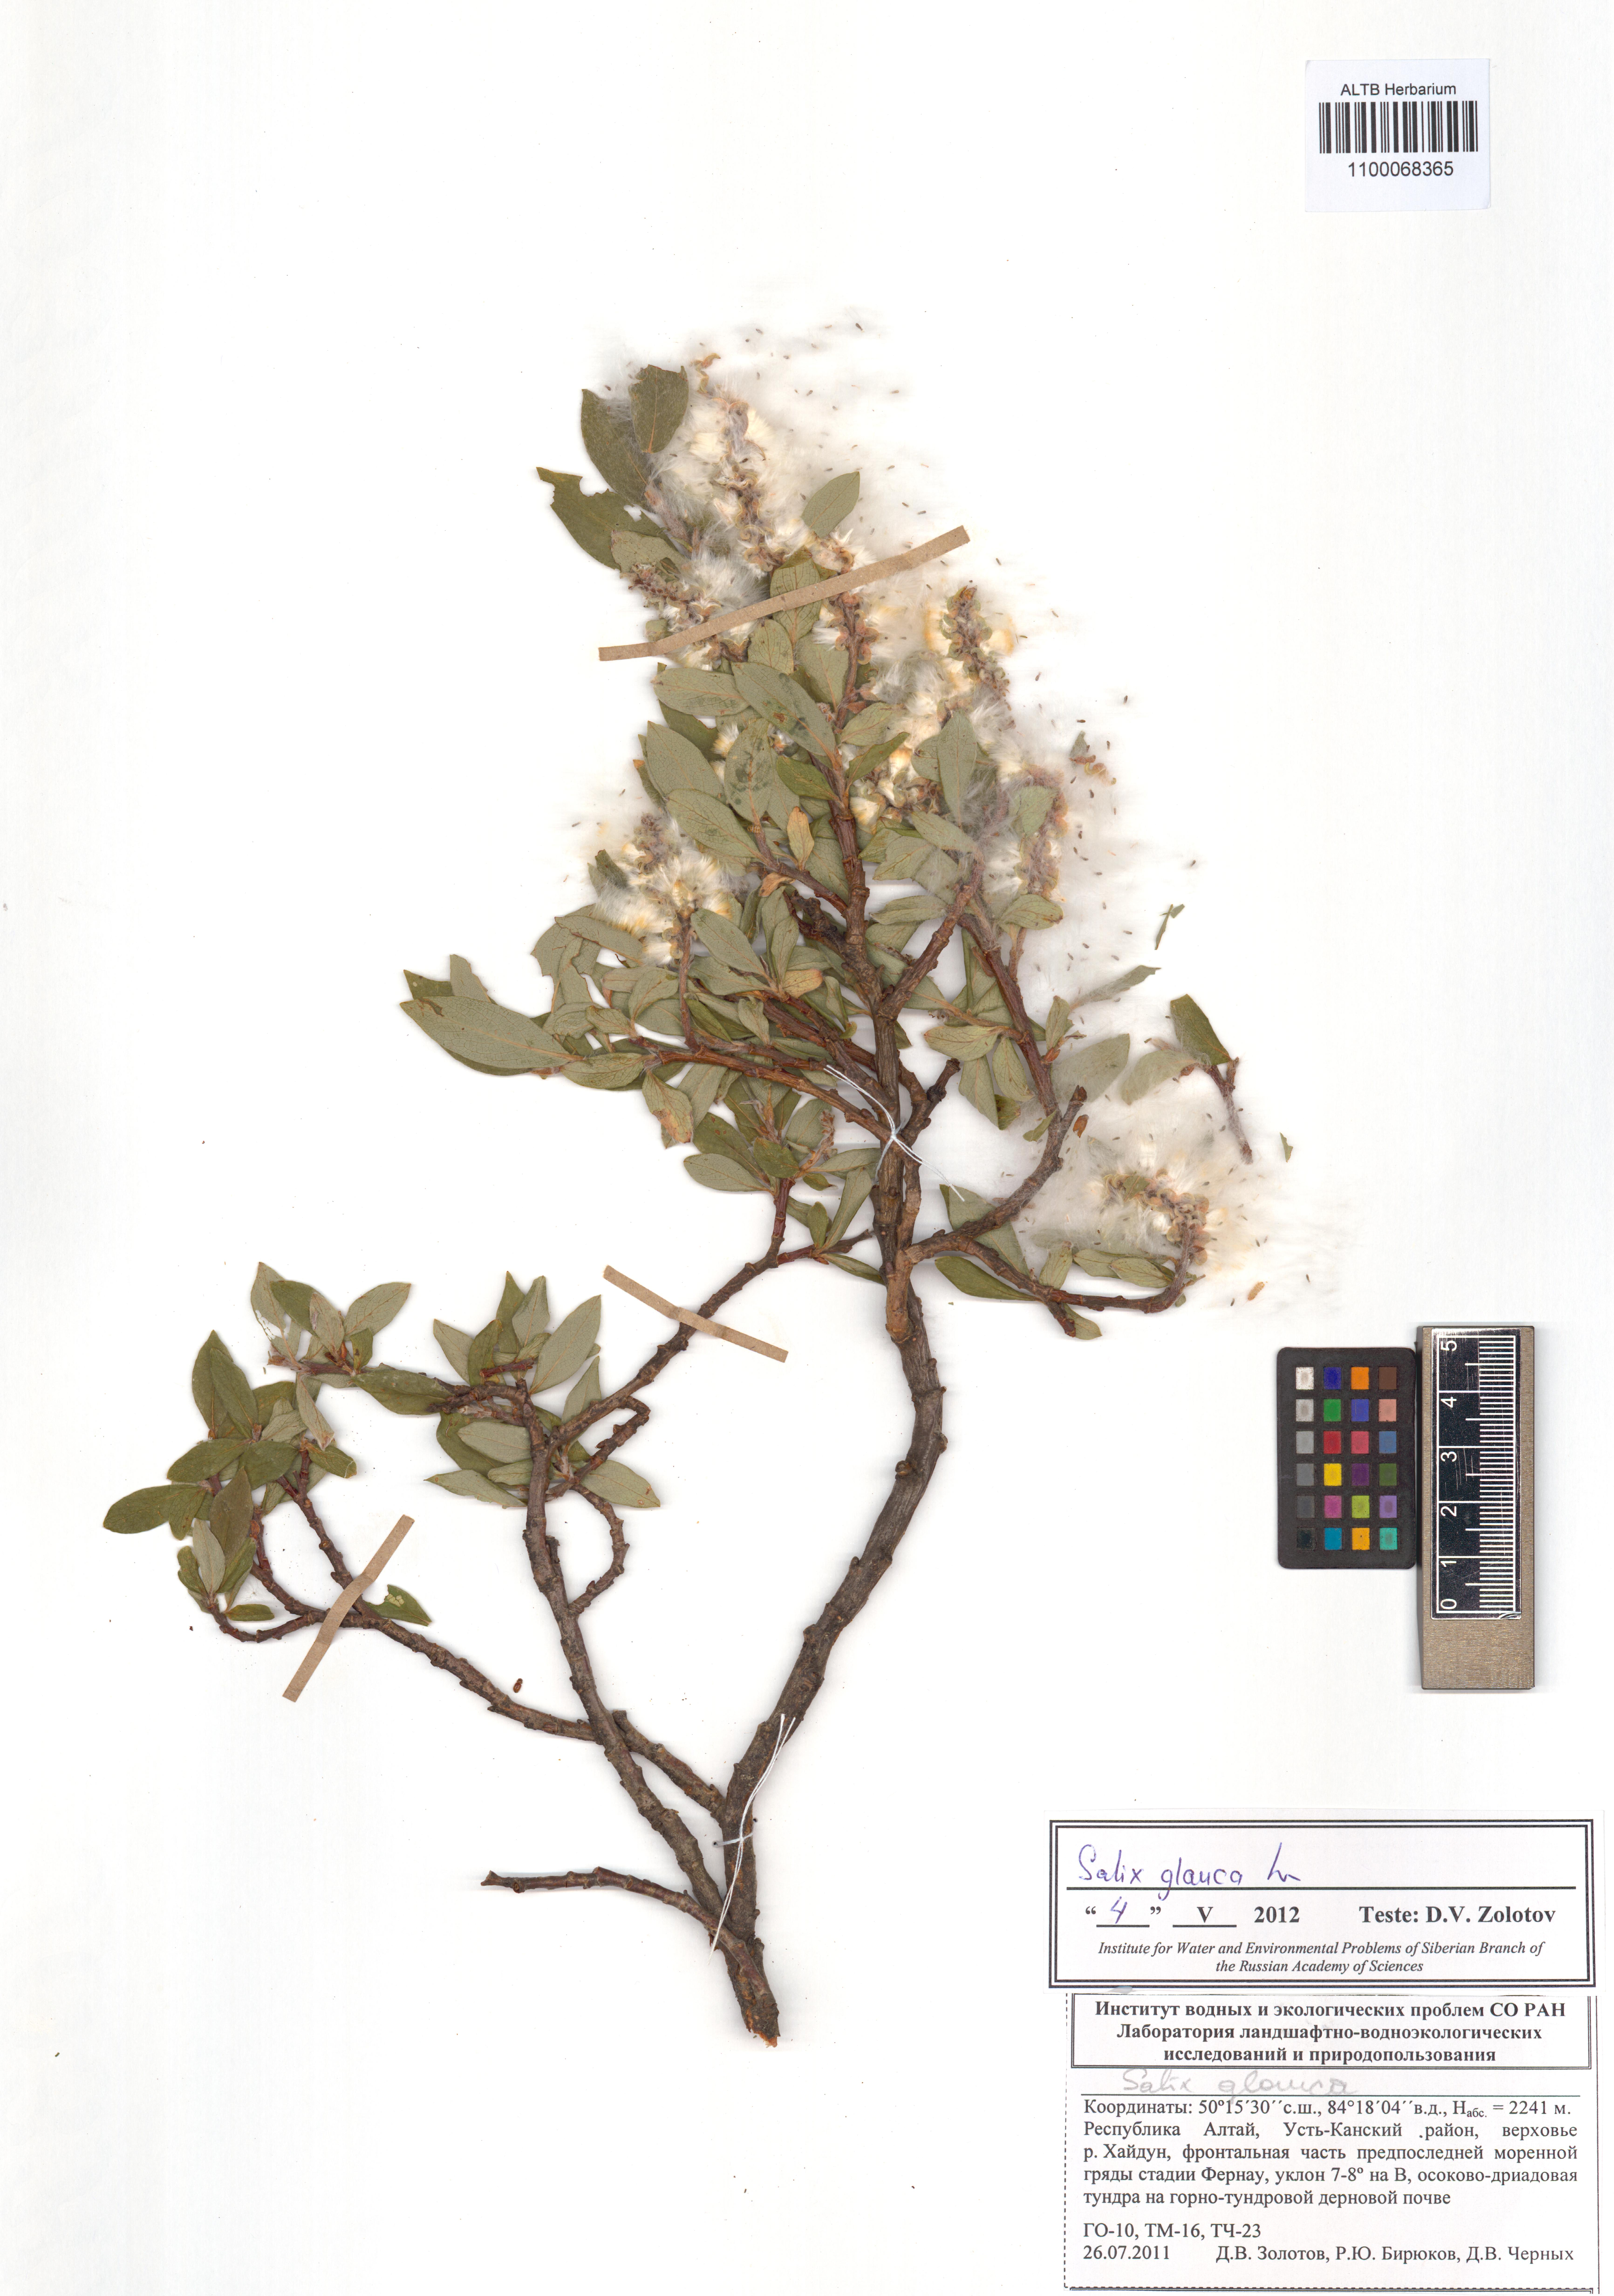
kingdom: Plantae
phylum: Tracheophyta
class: Magnoliopsida
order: Malpighiales
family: Salicaceae
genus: Salix
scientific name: Salix glauca
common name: Glaucous willow
